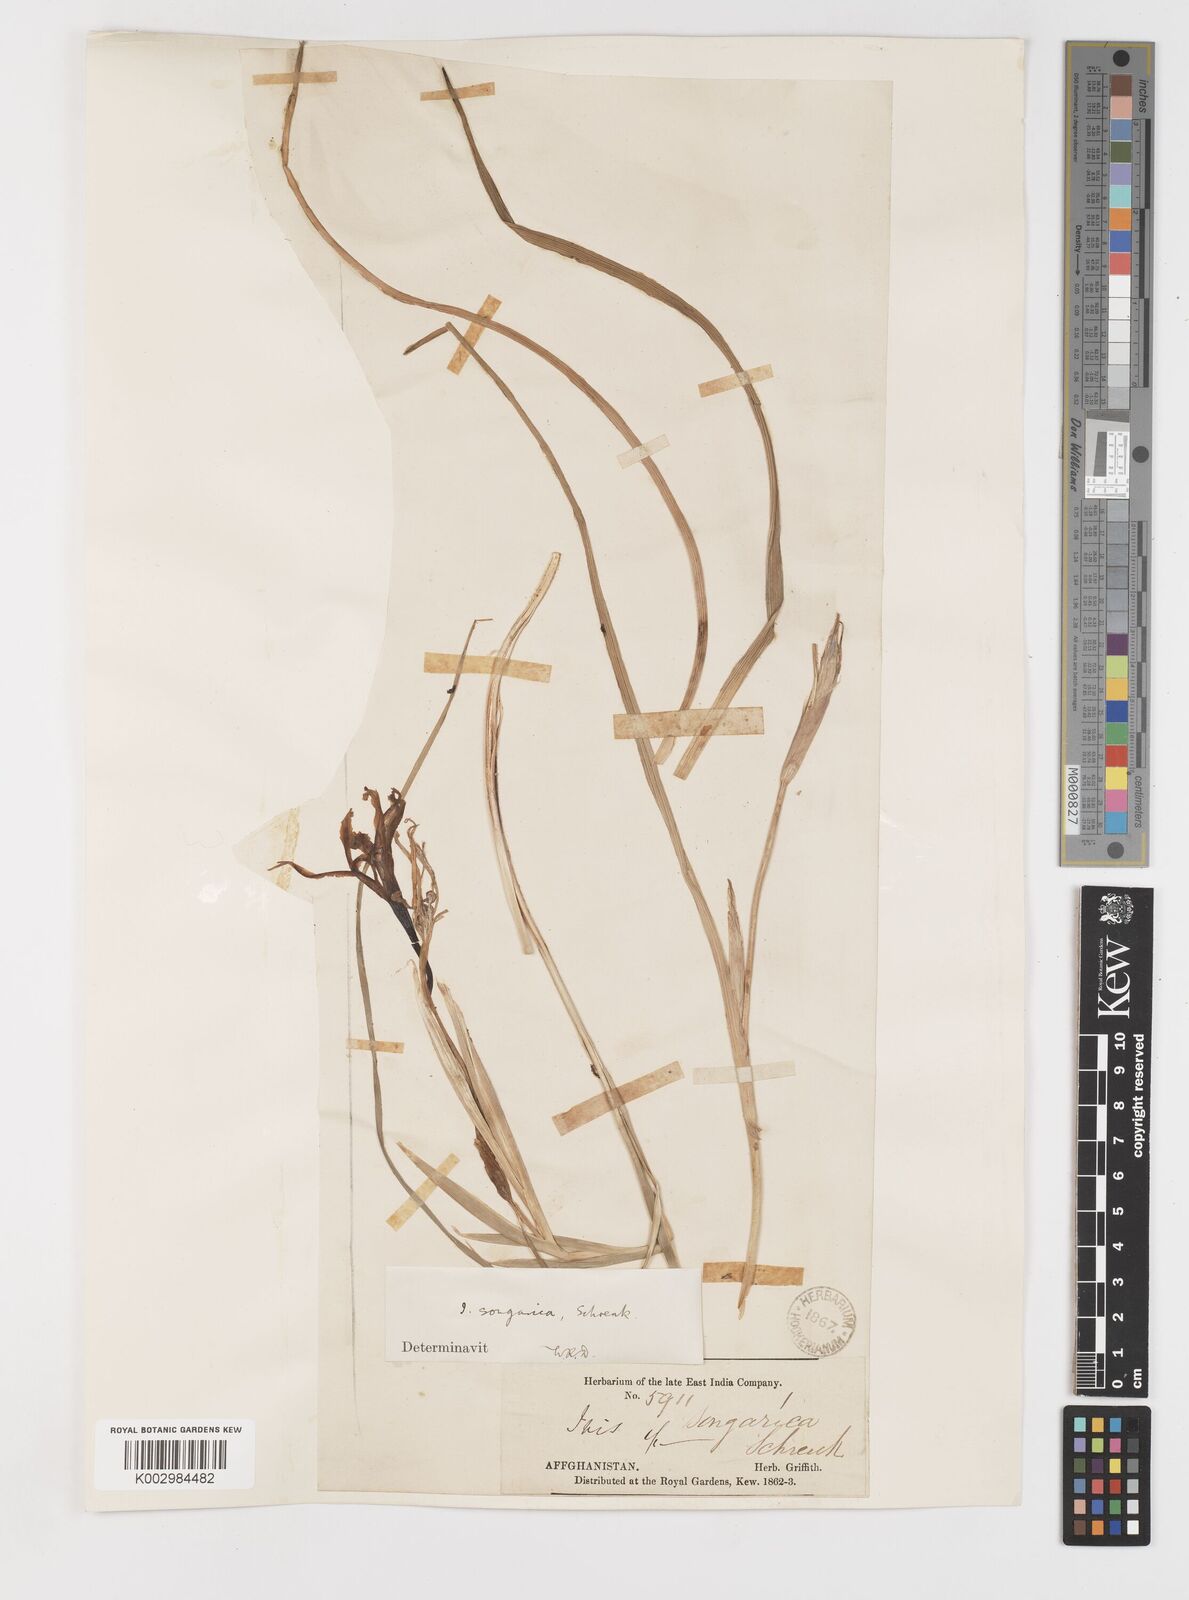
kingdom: Plantae
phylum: Tracheophyta
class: Liliopsida
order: Asparagales
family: Iridaceae
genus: Iris
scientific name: Iris songarica
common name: Songar iris
